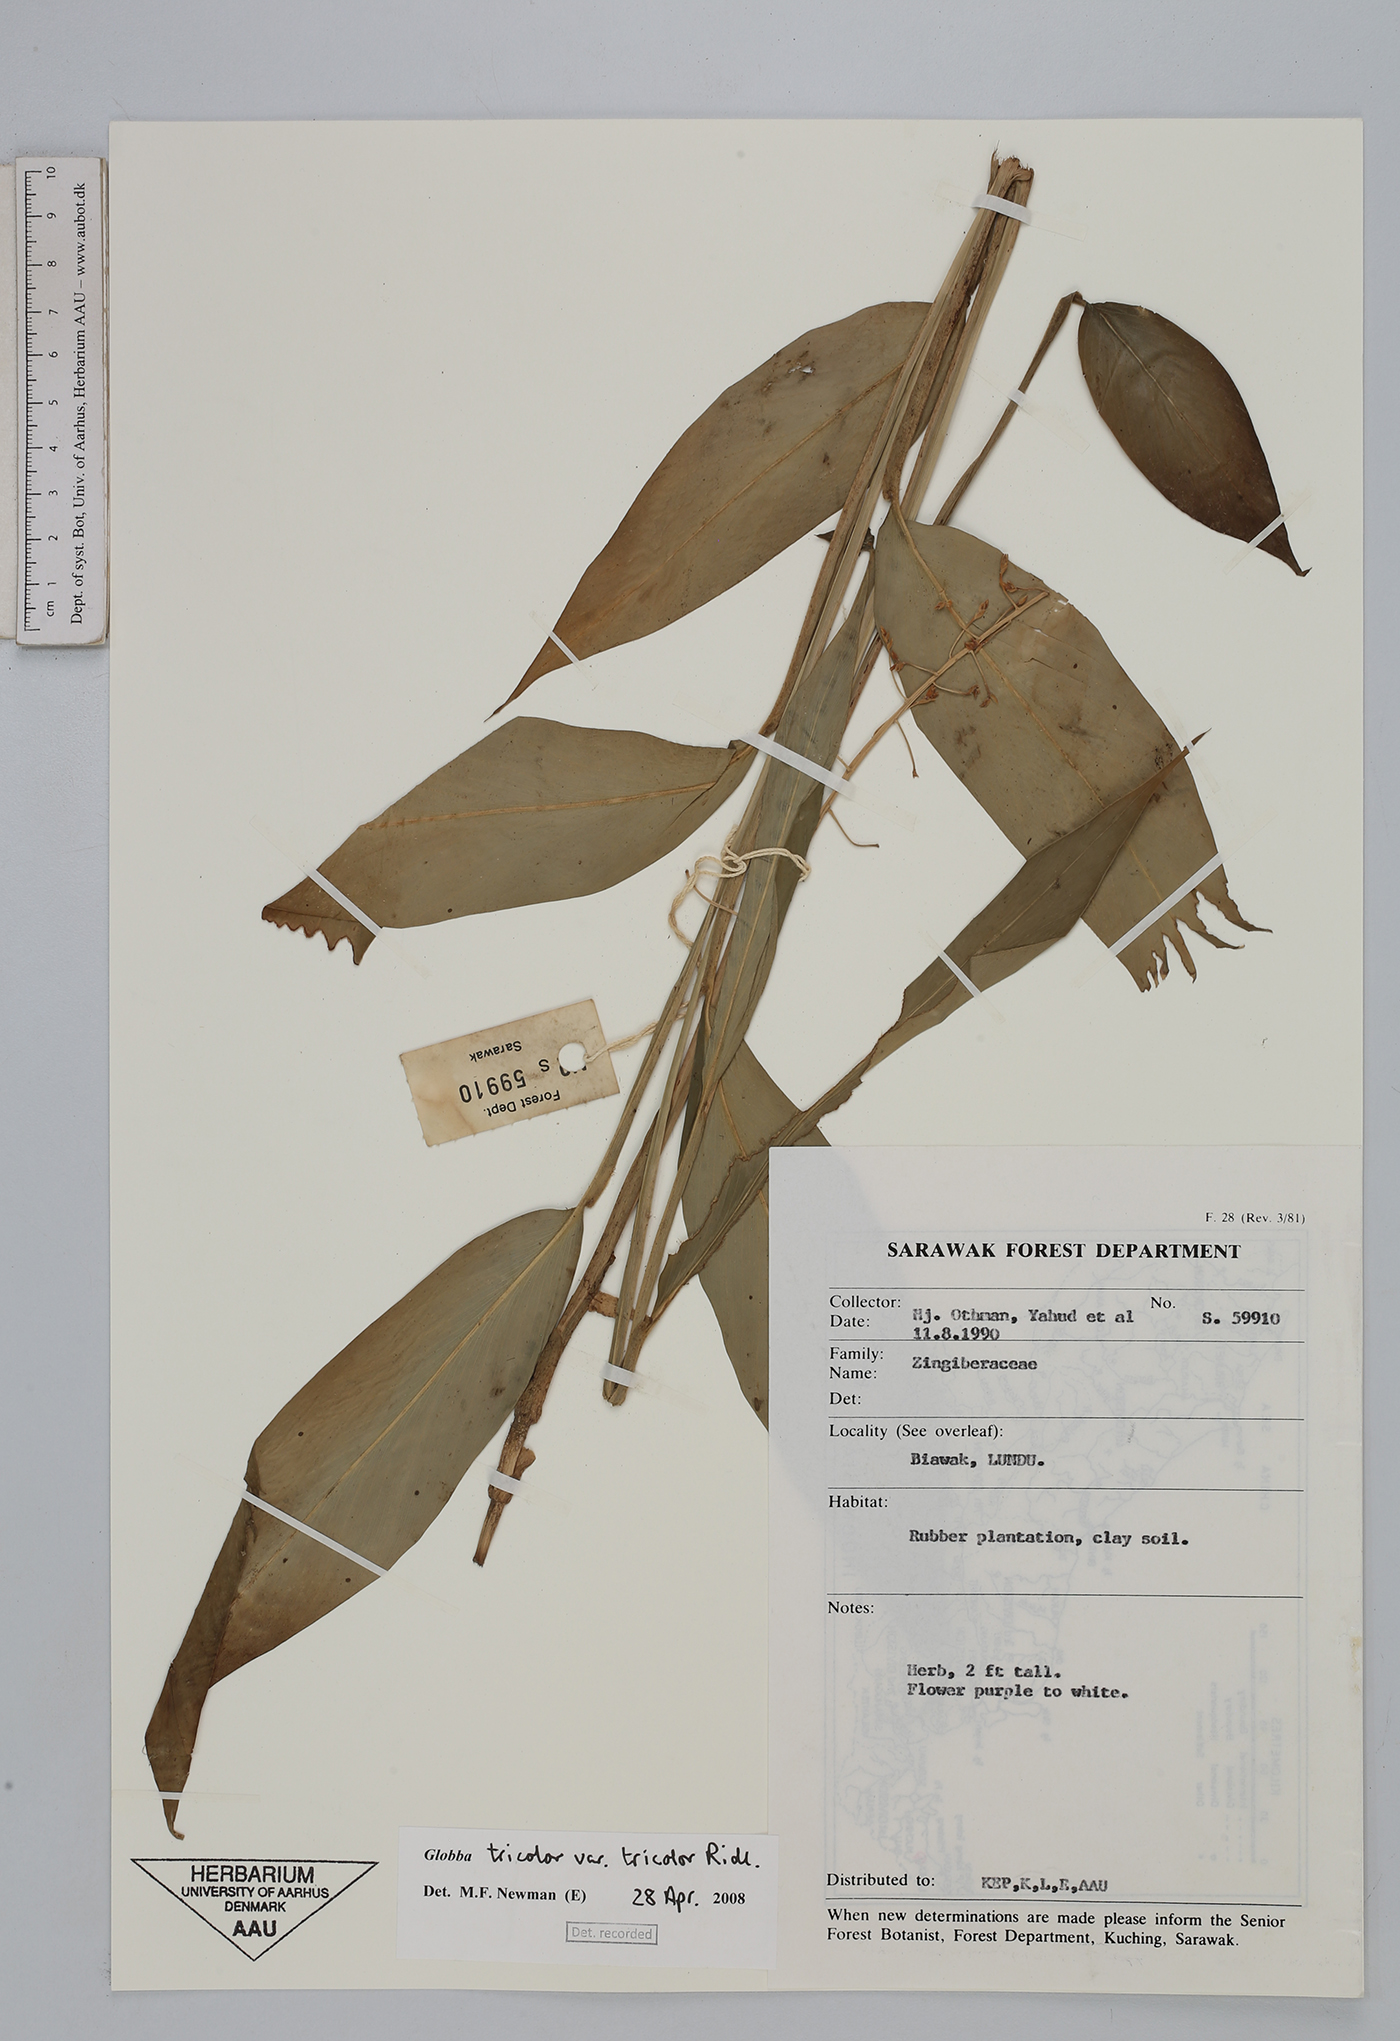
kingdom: Plantae
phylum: Tracheophyta
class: Liliopsida
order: Zingiberales
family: Zingiberaceae
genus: Globba
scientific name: Globba tricolor
